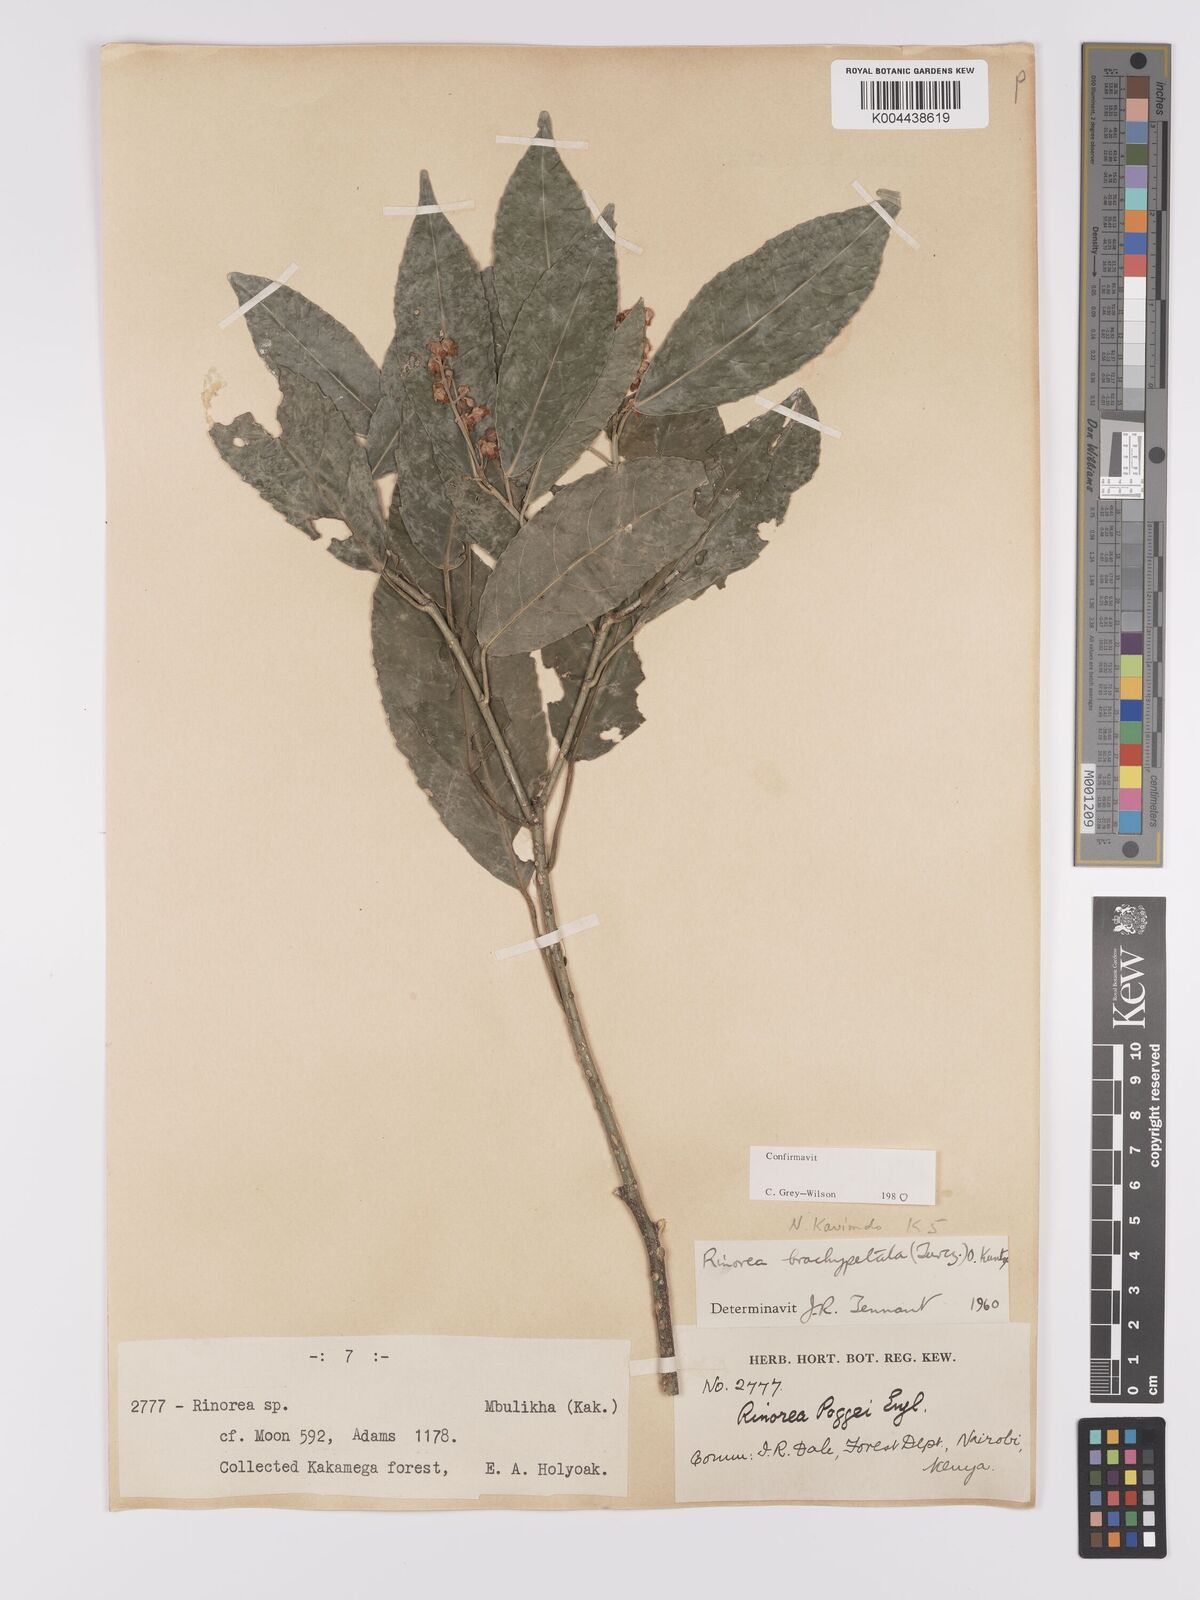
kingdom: Plantae
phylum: Tracheophyta
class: Magnoliopsida
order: Malpighiales
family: Violaceae
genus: Rinorea
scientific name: Rinorea brachypetala
